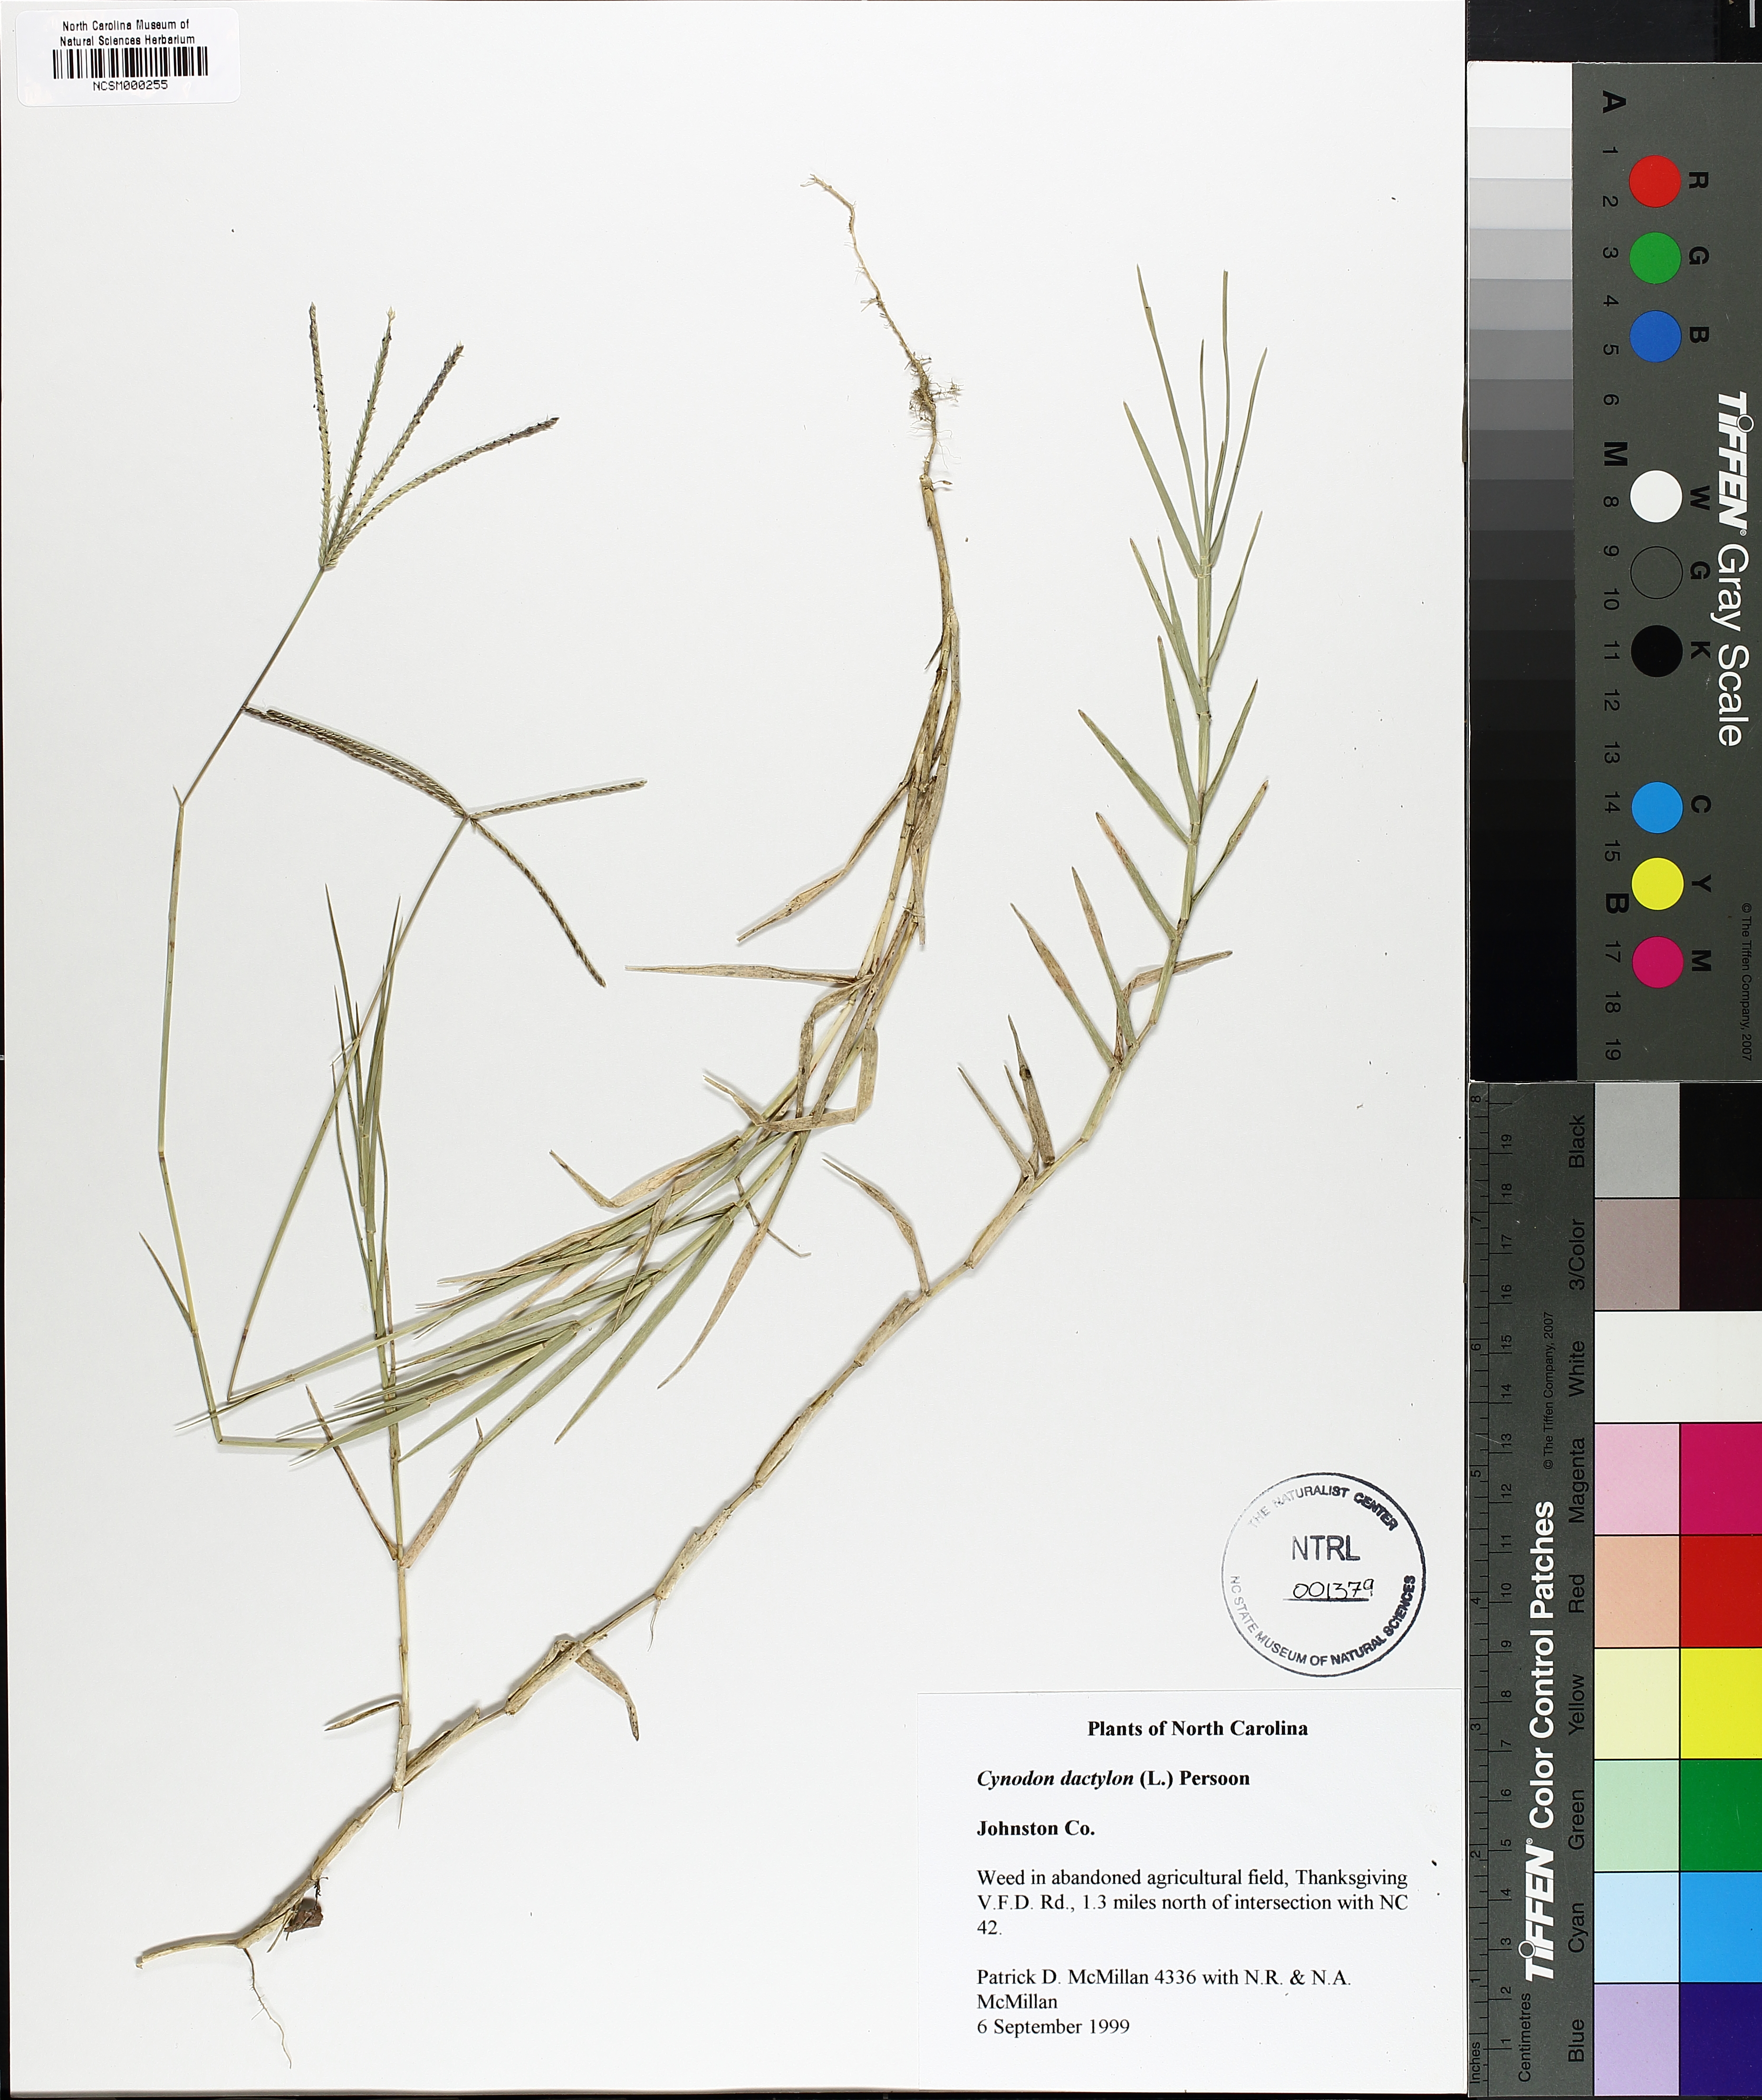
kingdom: Plantae
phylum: Tracheophyta
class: Liliopsida
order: Poales
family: Poaceae
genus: Cynodon
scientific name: Cynodon dactylon
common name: Bermuda grass
